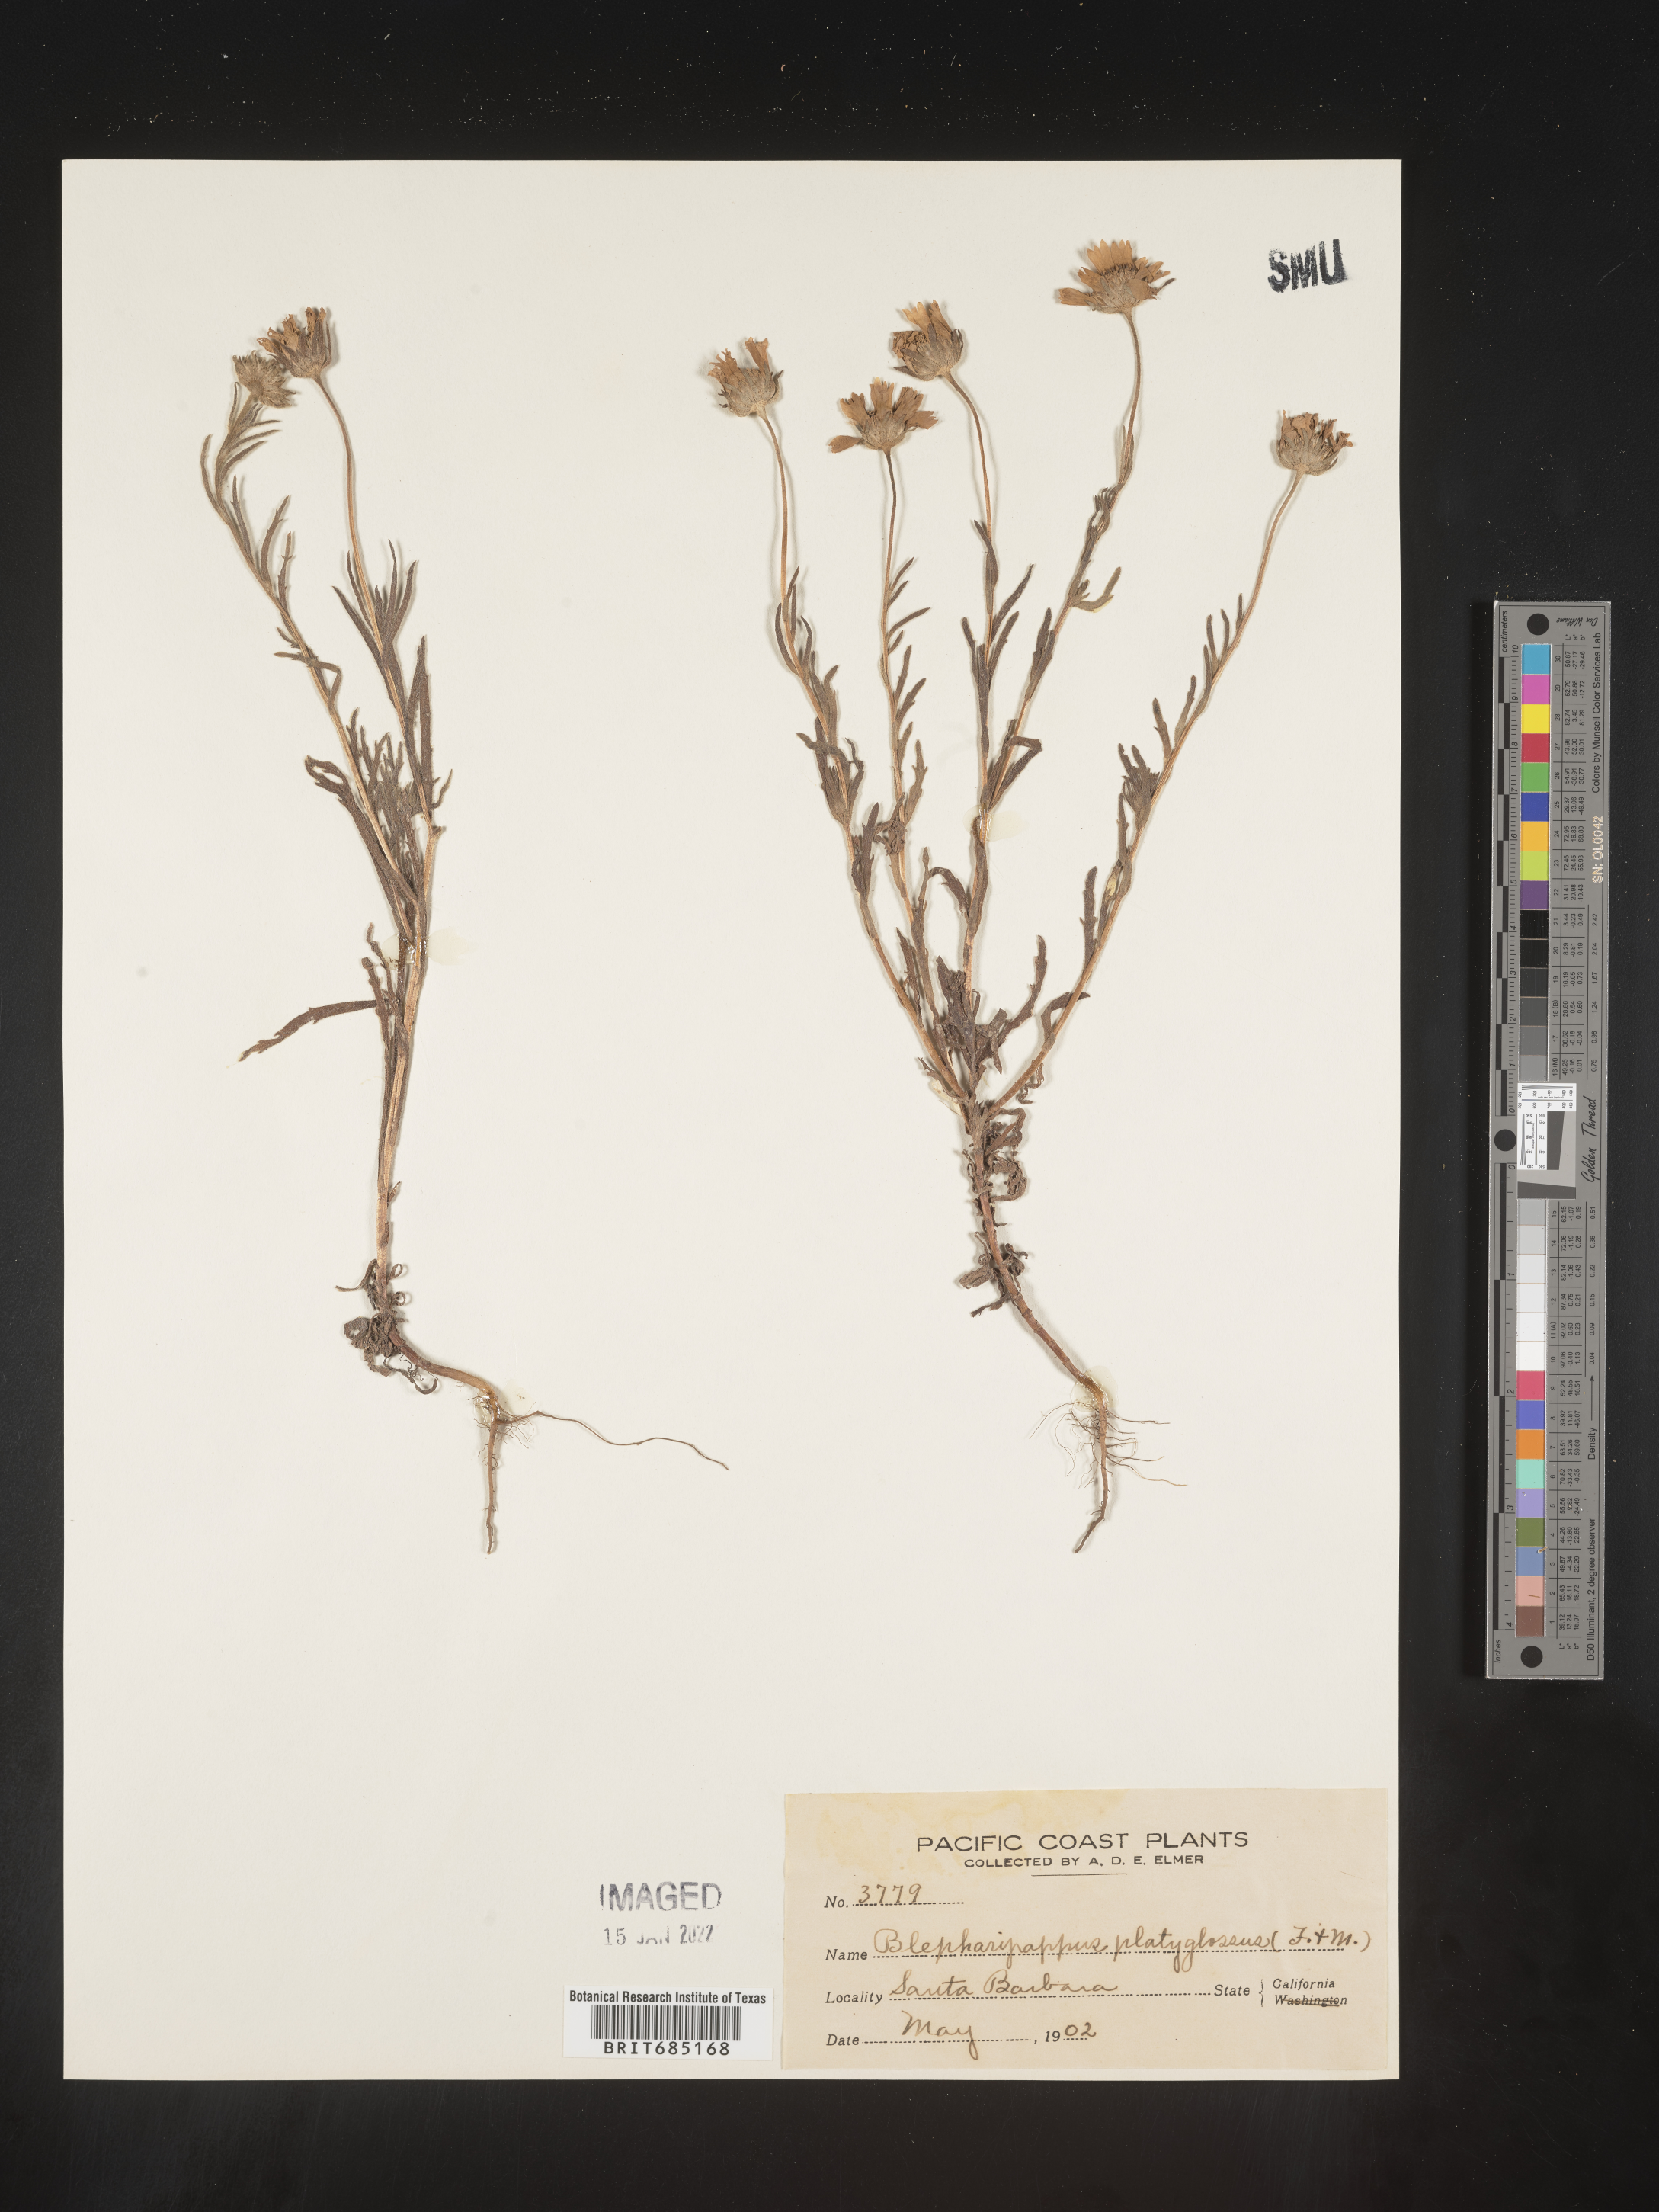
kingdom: Plantae
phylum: Tracheophyta
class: Magnoliopsida
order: Asterales
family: Asteraceae
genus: Blepharipappus
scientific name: Blepharipappus
